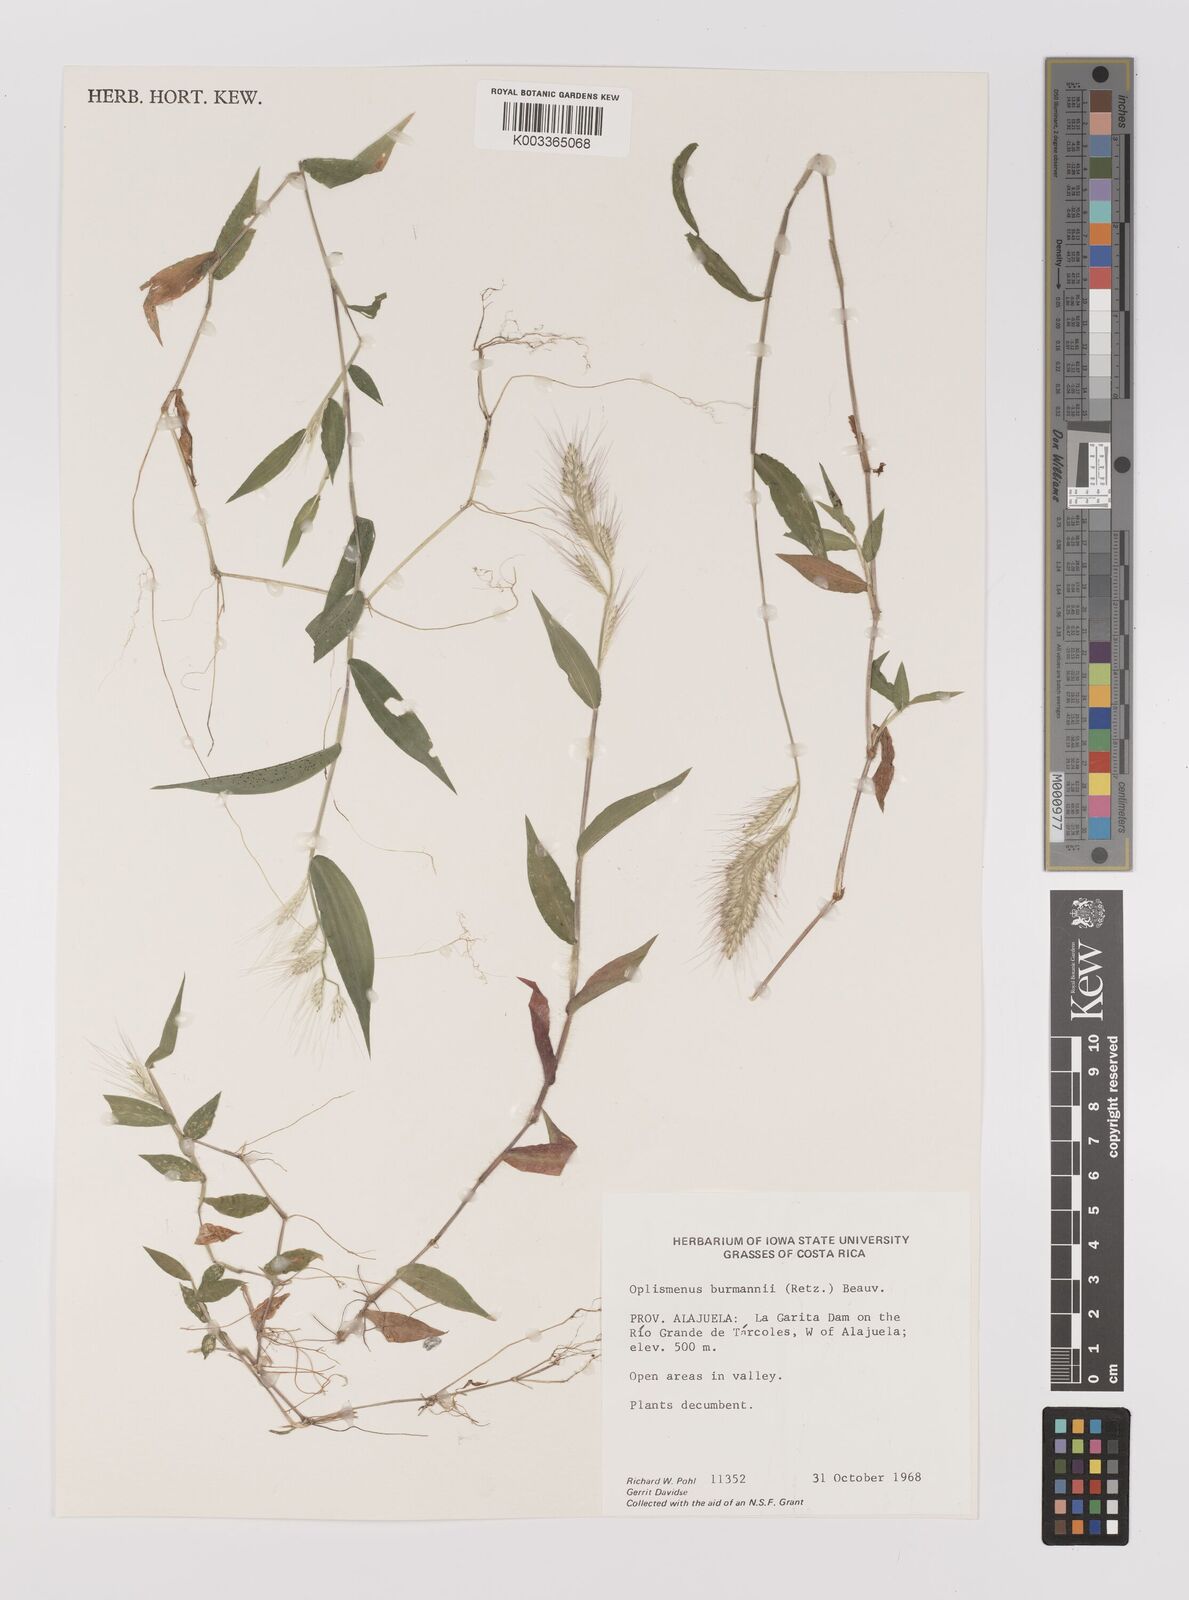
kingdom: Plantae
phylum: Tracheophyta
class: Liliopsida
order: Poales
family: Poaceae
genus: Oplismenus
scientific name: Oplismenus burmanni
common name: Burmann's basketgrass
